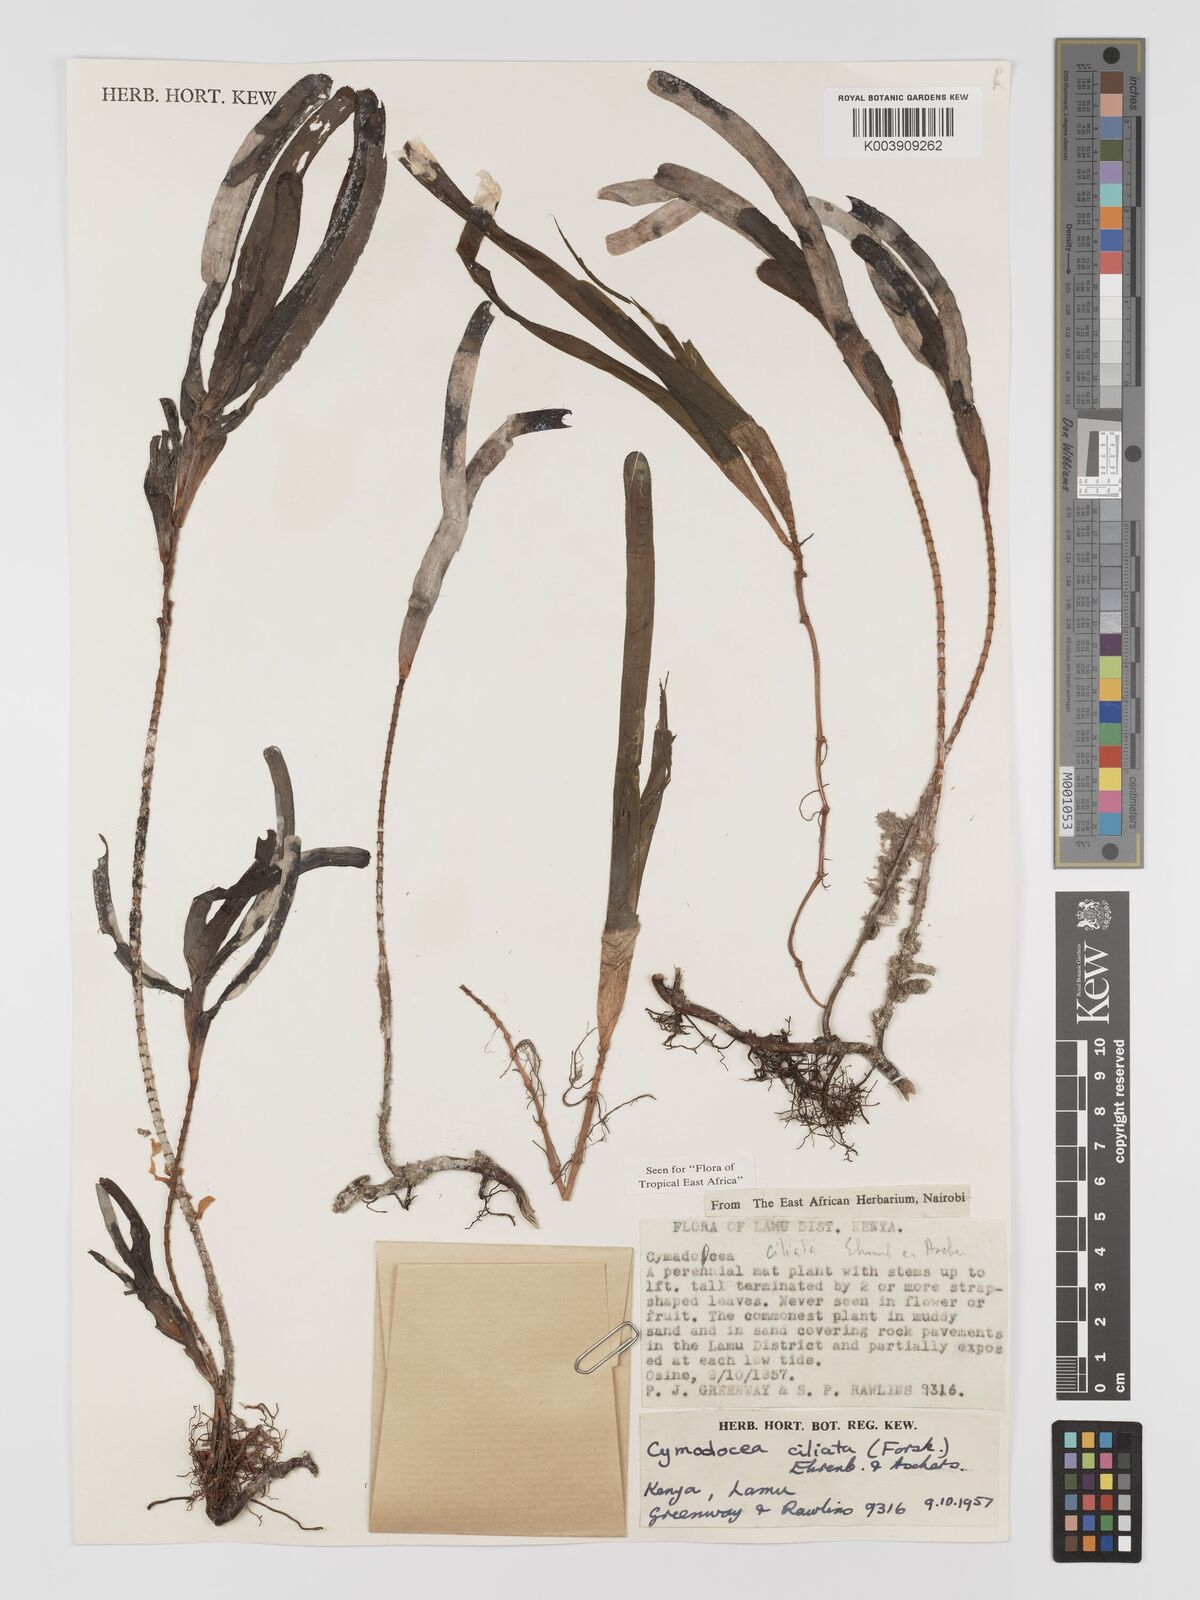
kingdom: Plantae
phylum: Tracheophyta
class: Liliopsida
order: Alismatales
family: Cymodoceaceae
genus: Thalassodendron
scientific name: Thalassodendron ciliatum
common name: Species code: tc
